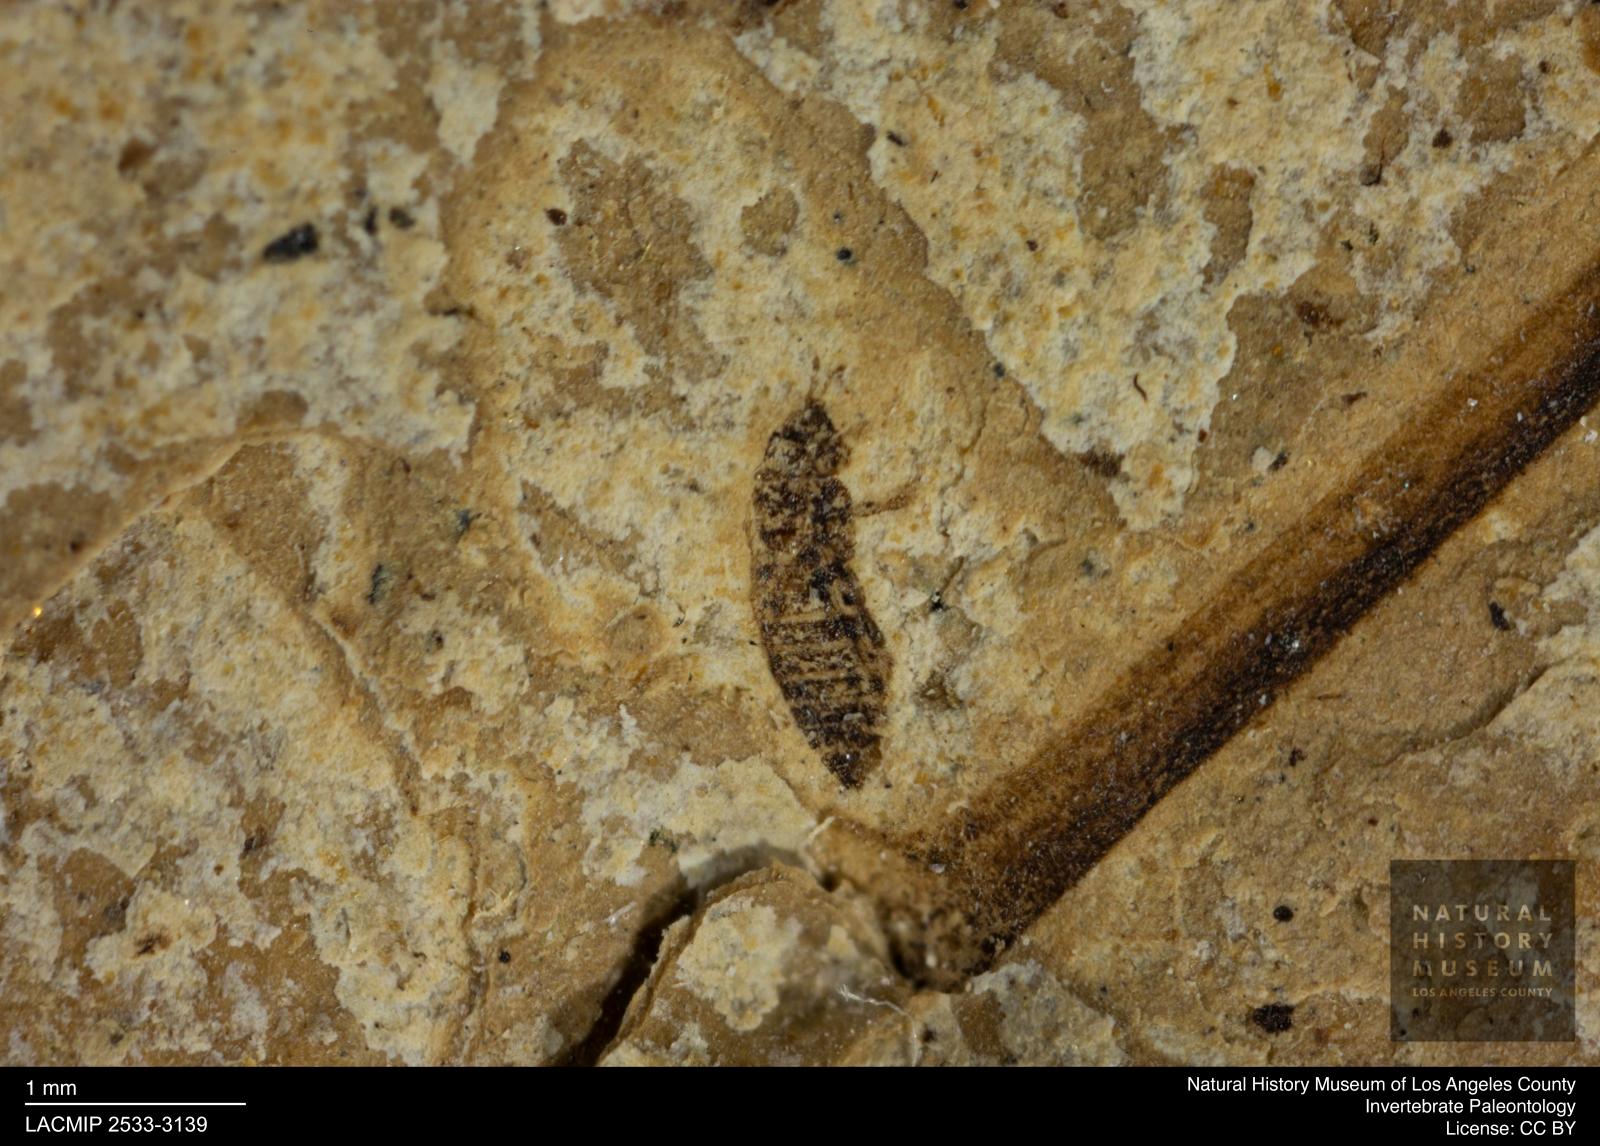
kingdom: Animalia
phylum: Arthropoda
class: Insecta
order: Thysanoptera
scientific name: Thysanoptera
